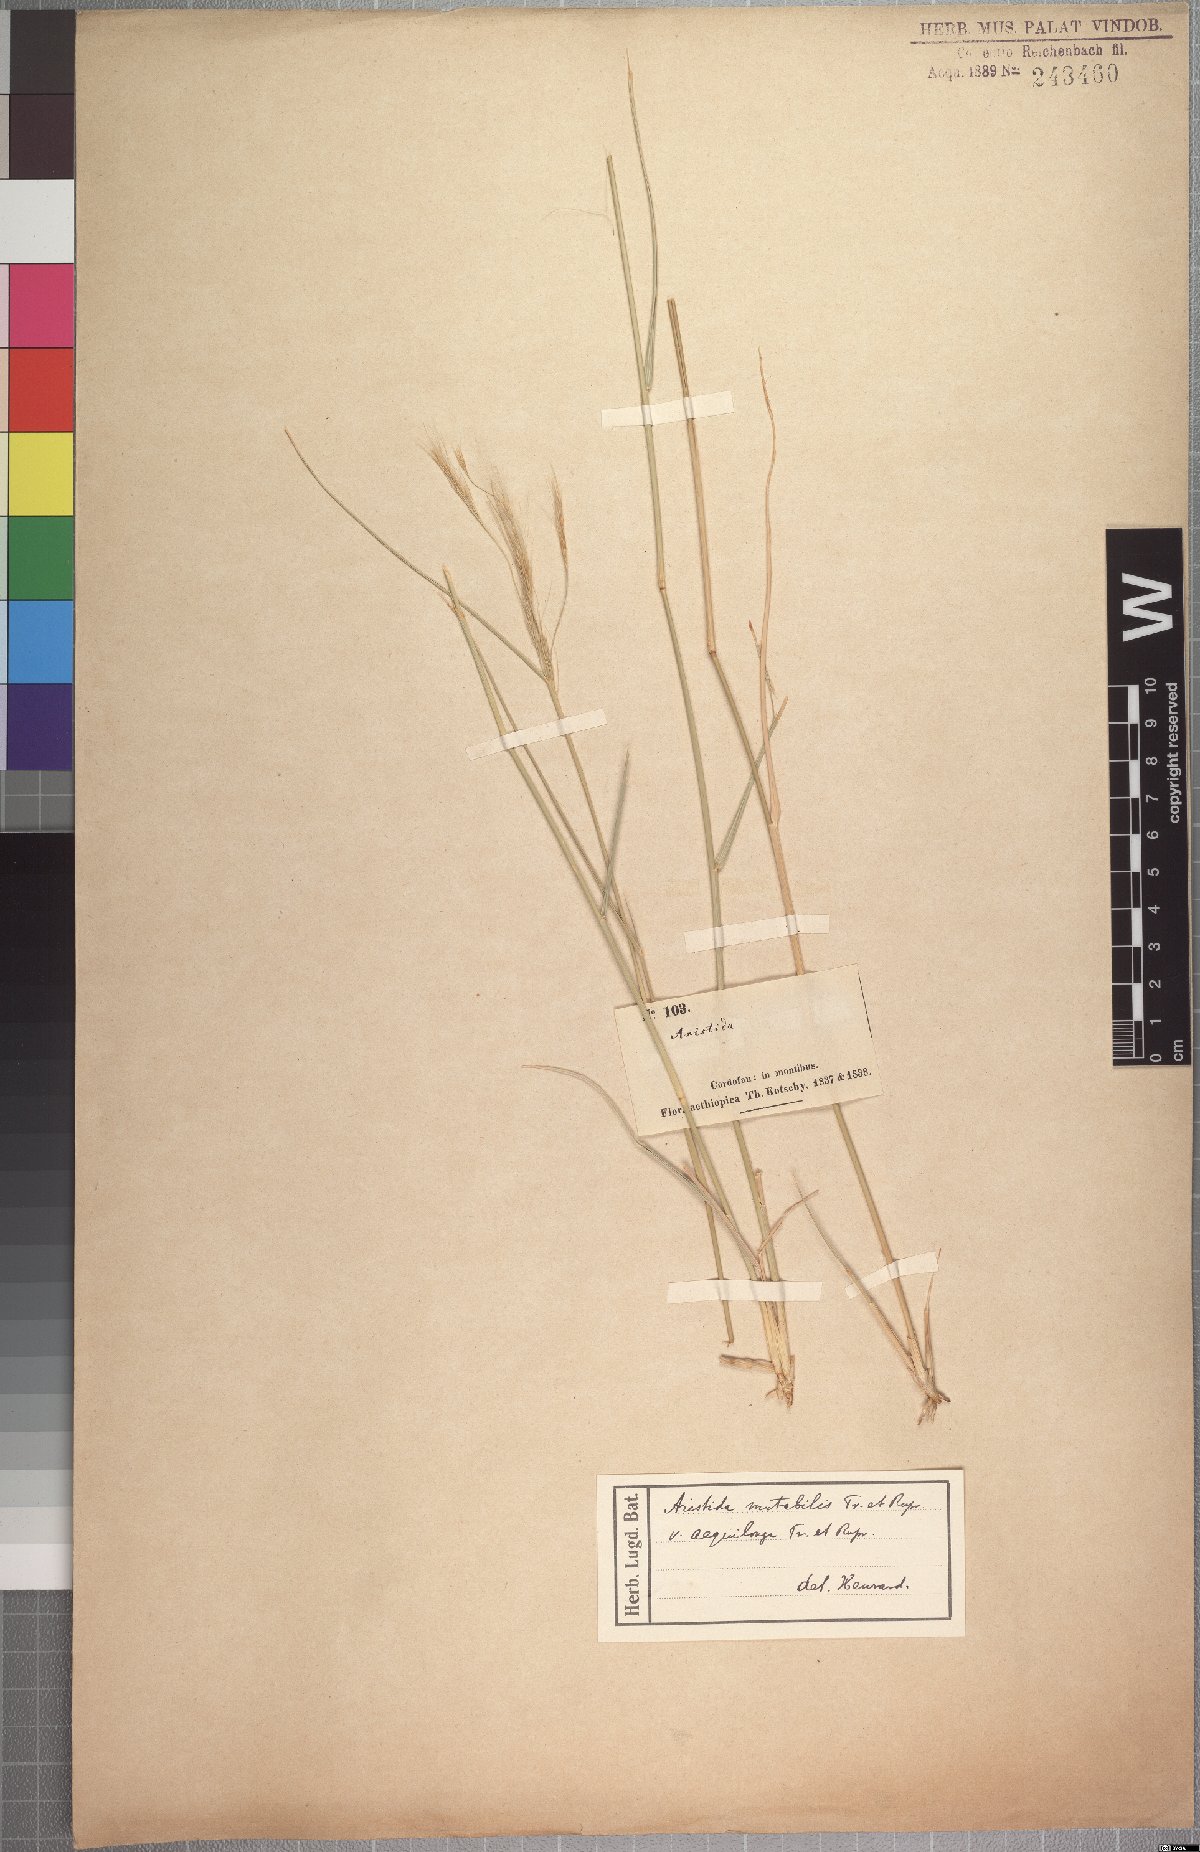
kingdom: Plantae
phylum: Tracheophyta
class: Liliopsida
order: Poales
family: Poaceae
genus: Aristida
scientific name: Aristida mutabilis
